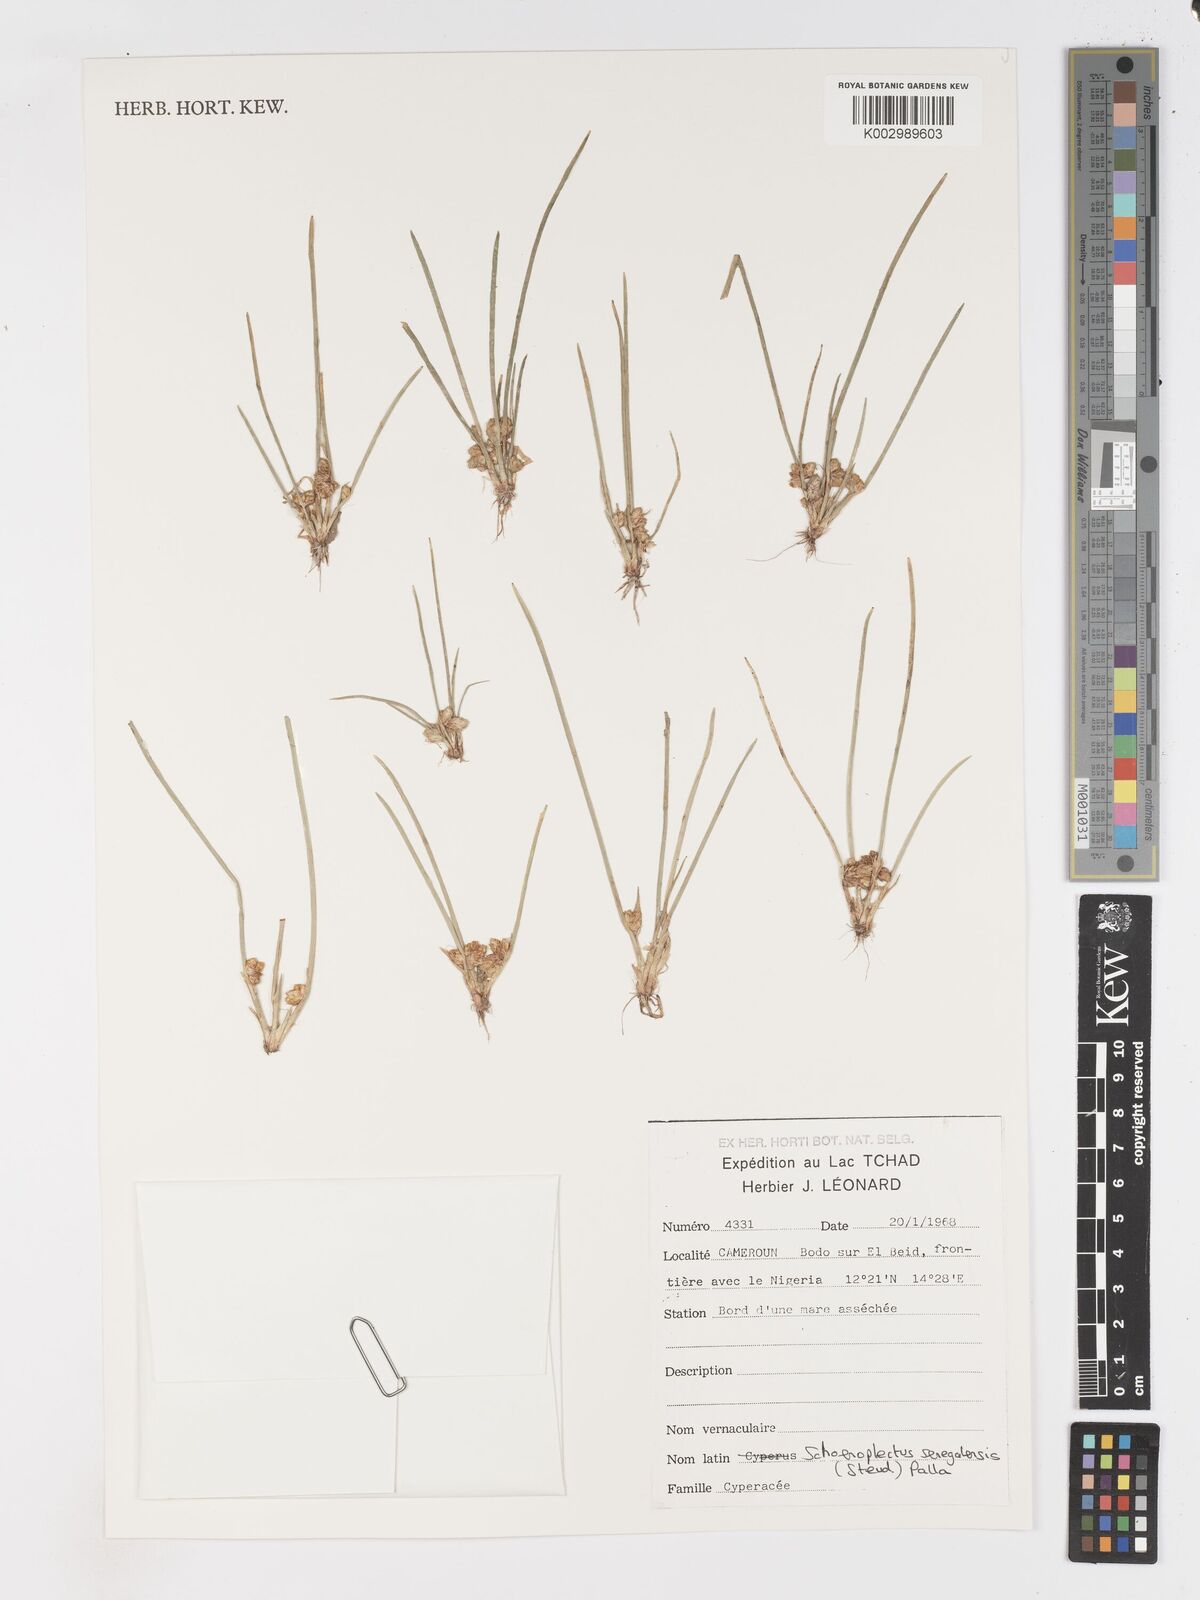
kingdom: Plantae
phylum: Tracheophyta
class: Liliopsida
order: Poales
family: Cyperaceae
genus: Schoenoplectiella
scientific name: Schoenoplectiella senegalensis
